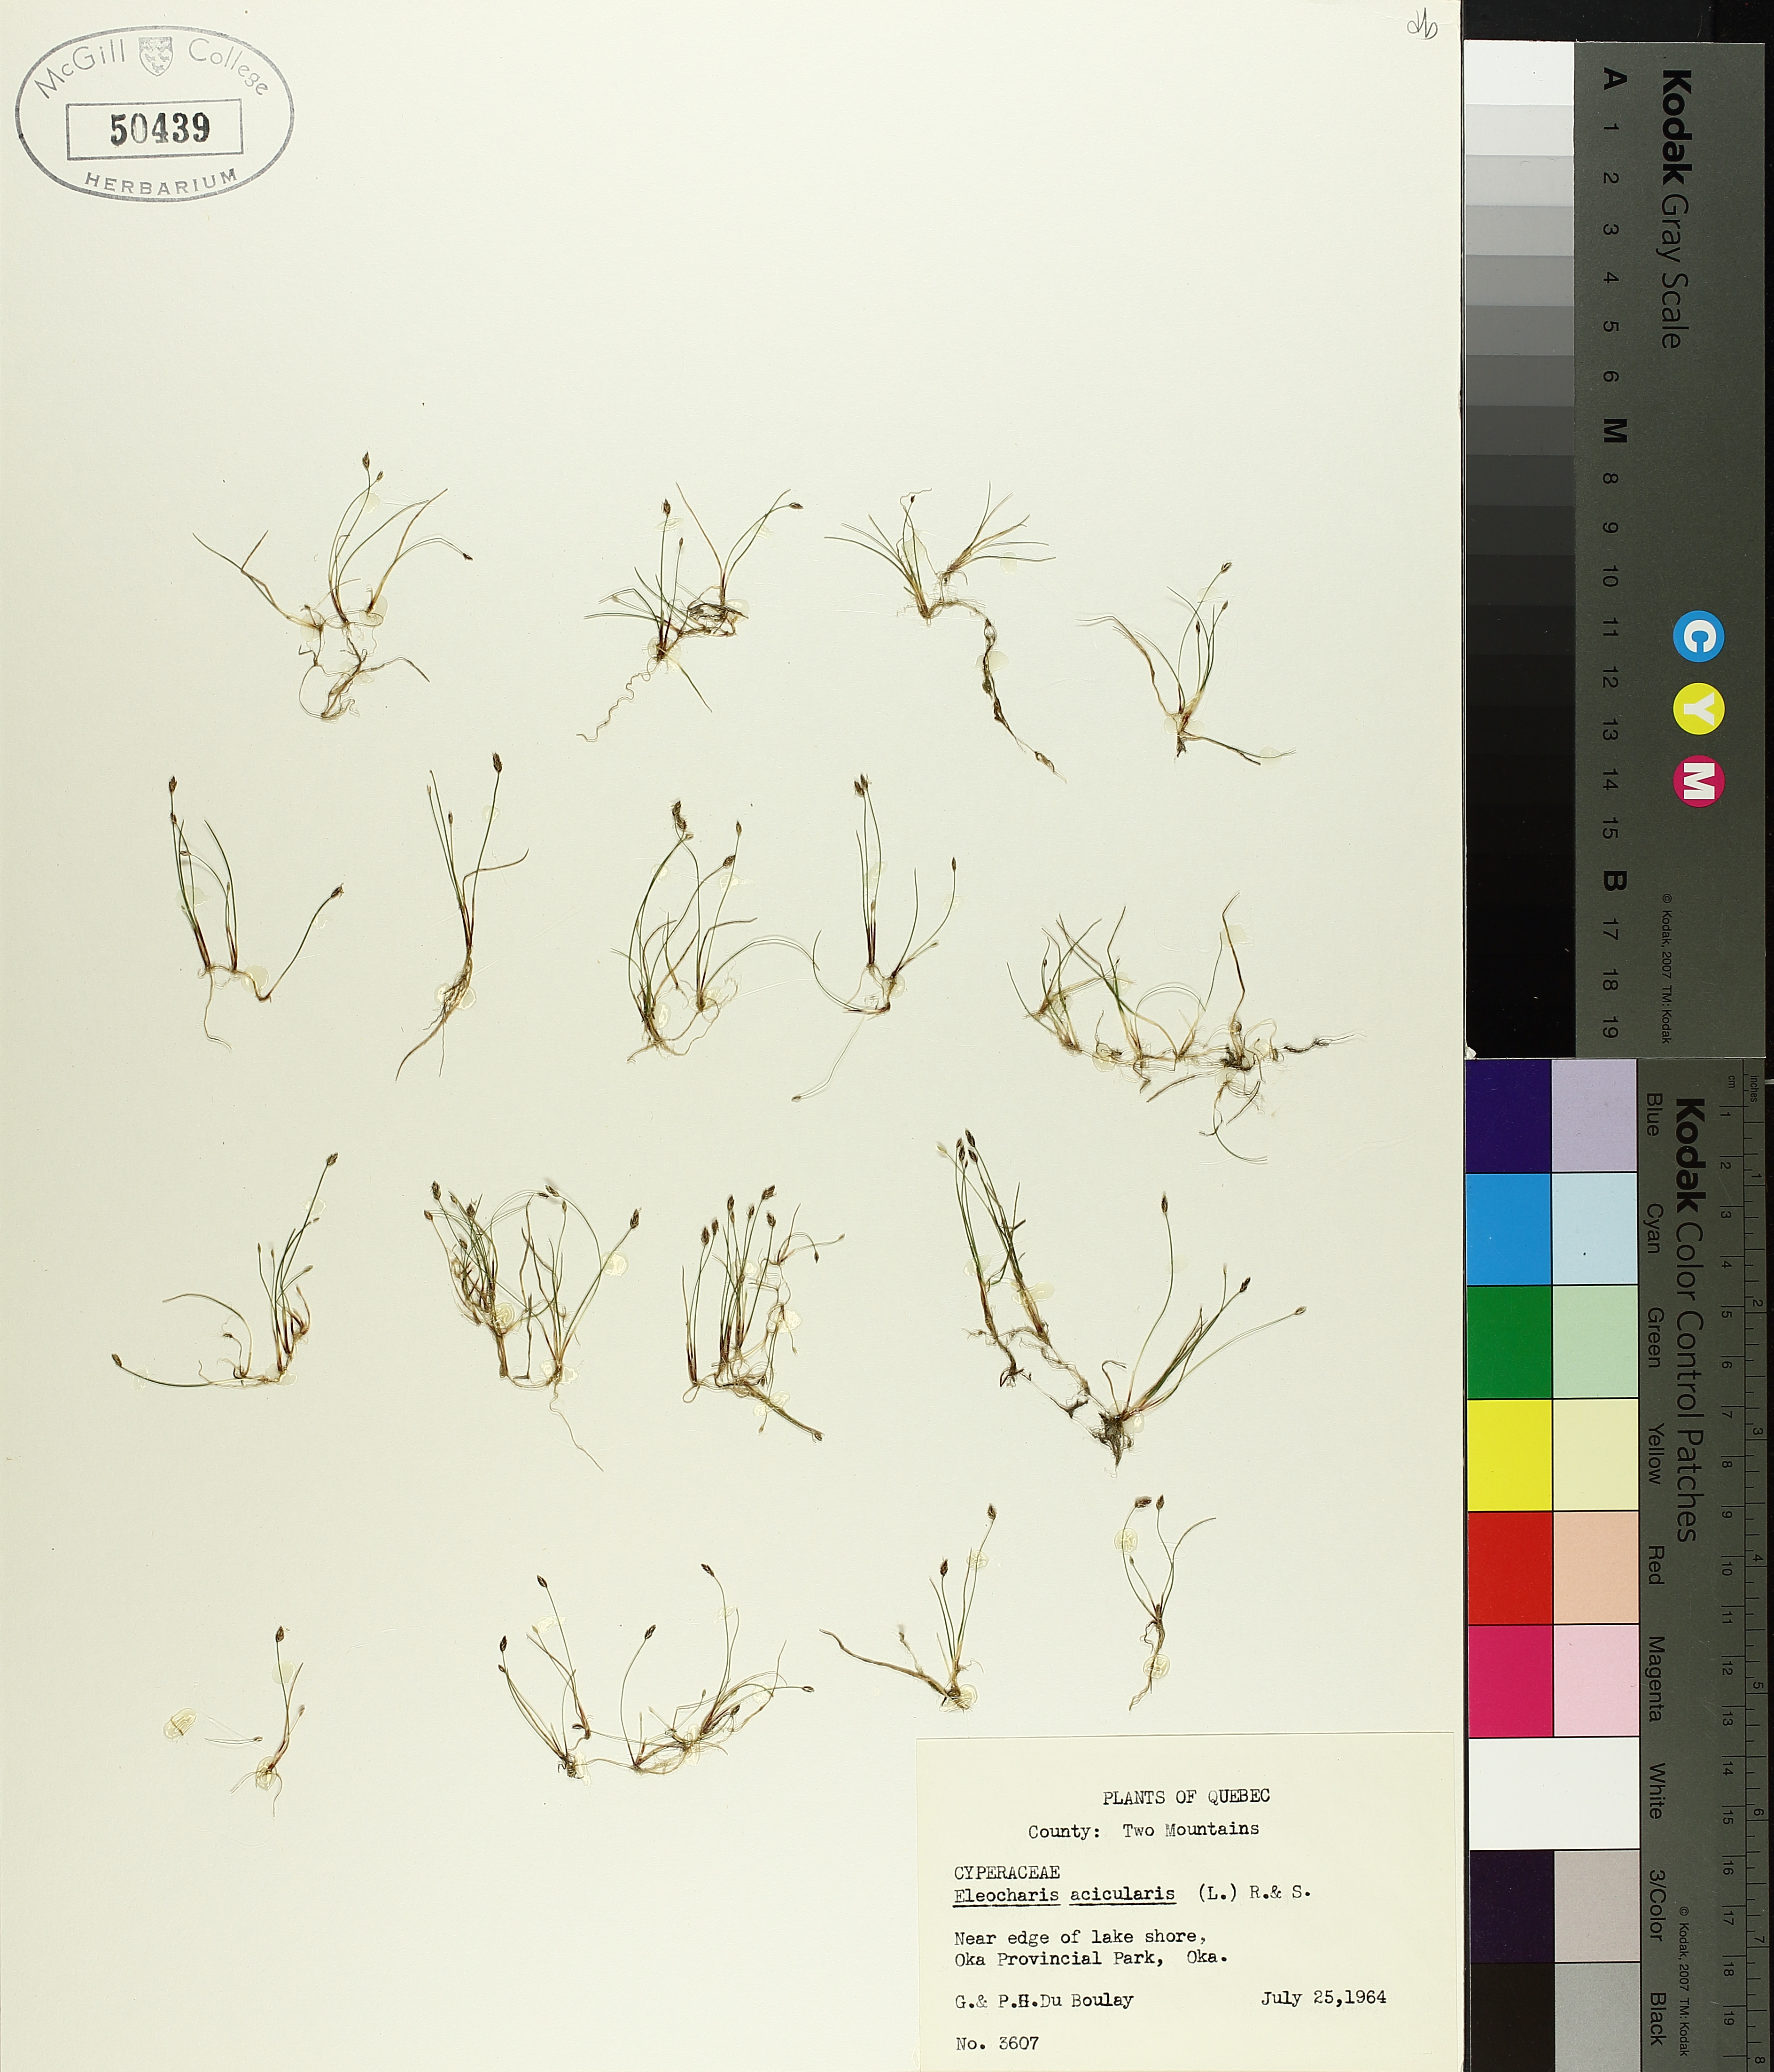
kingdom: Plantae
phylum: Tracheophyta
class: Liliopsida
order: Poales
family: Cyperaceae
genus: Eleocharis
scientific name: Eleocharis acicularis
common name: Needle spike-rush
